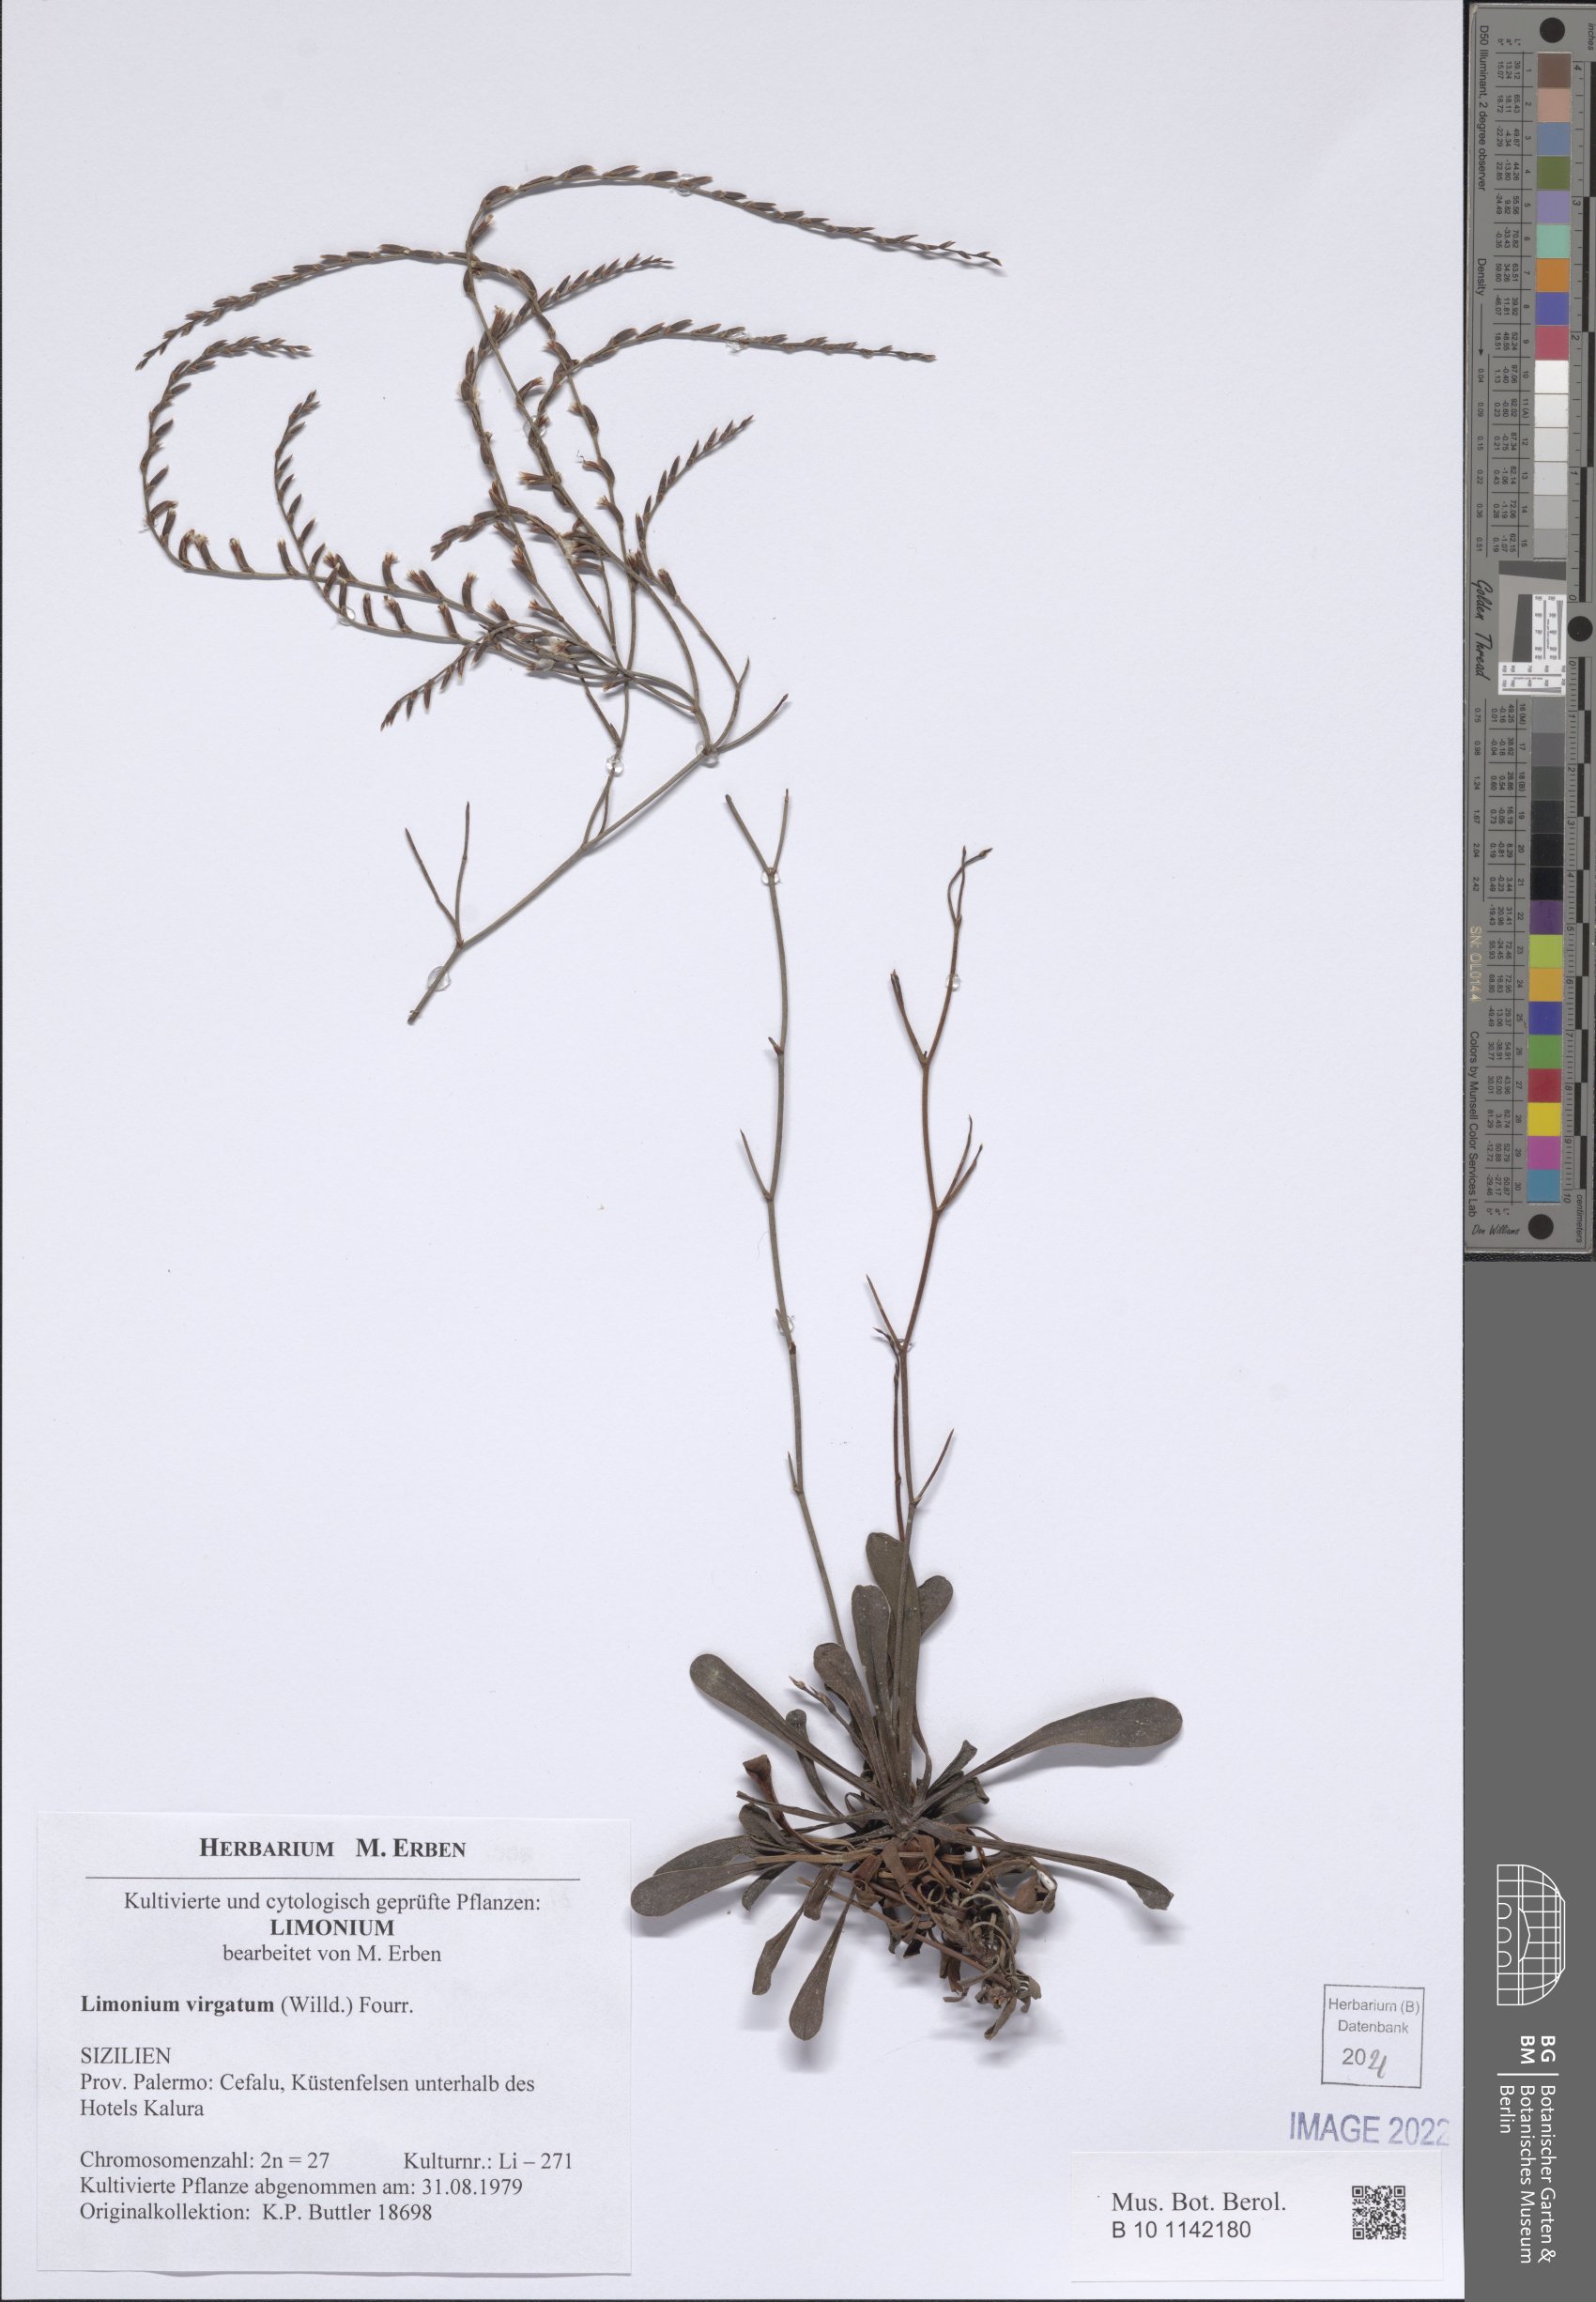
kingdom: Plantae
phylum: Tracheophyta
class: Magnoliopsida
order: Caryophyllales
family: Plumbaginaceae
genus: Limonium
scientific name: Limonium virgatum
